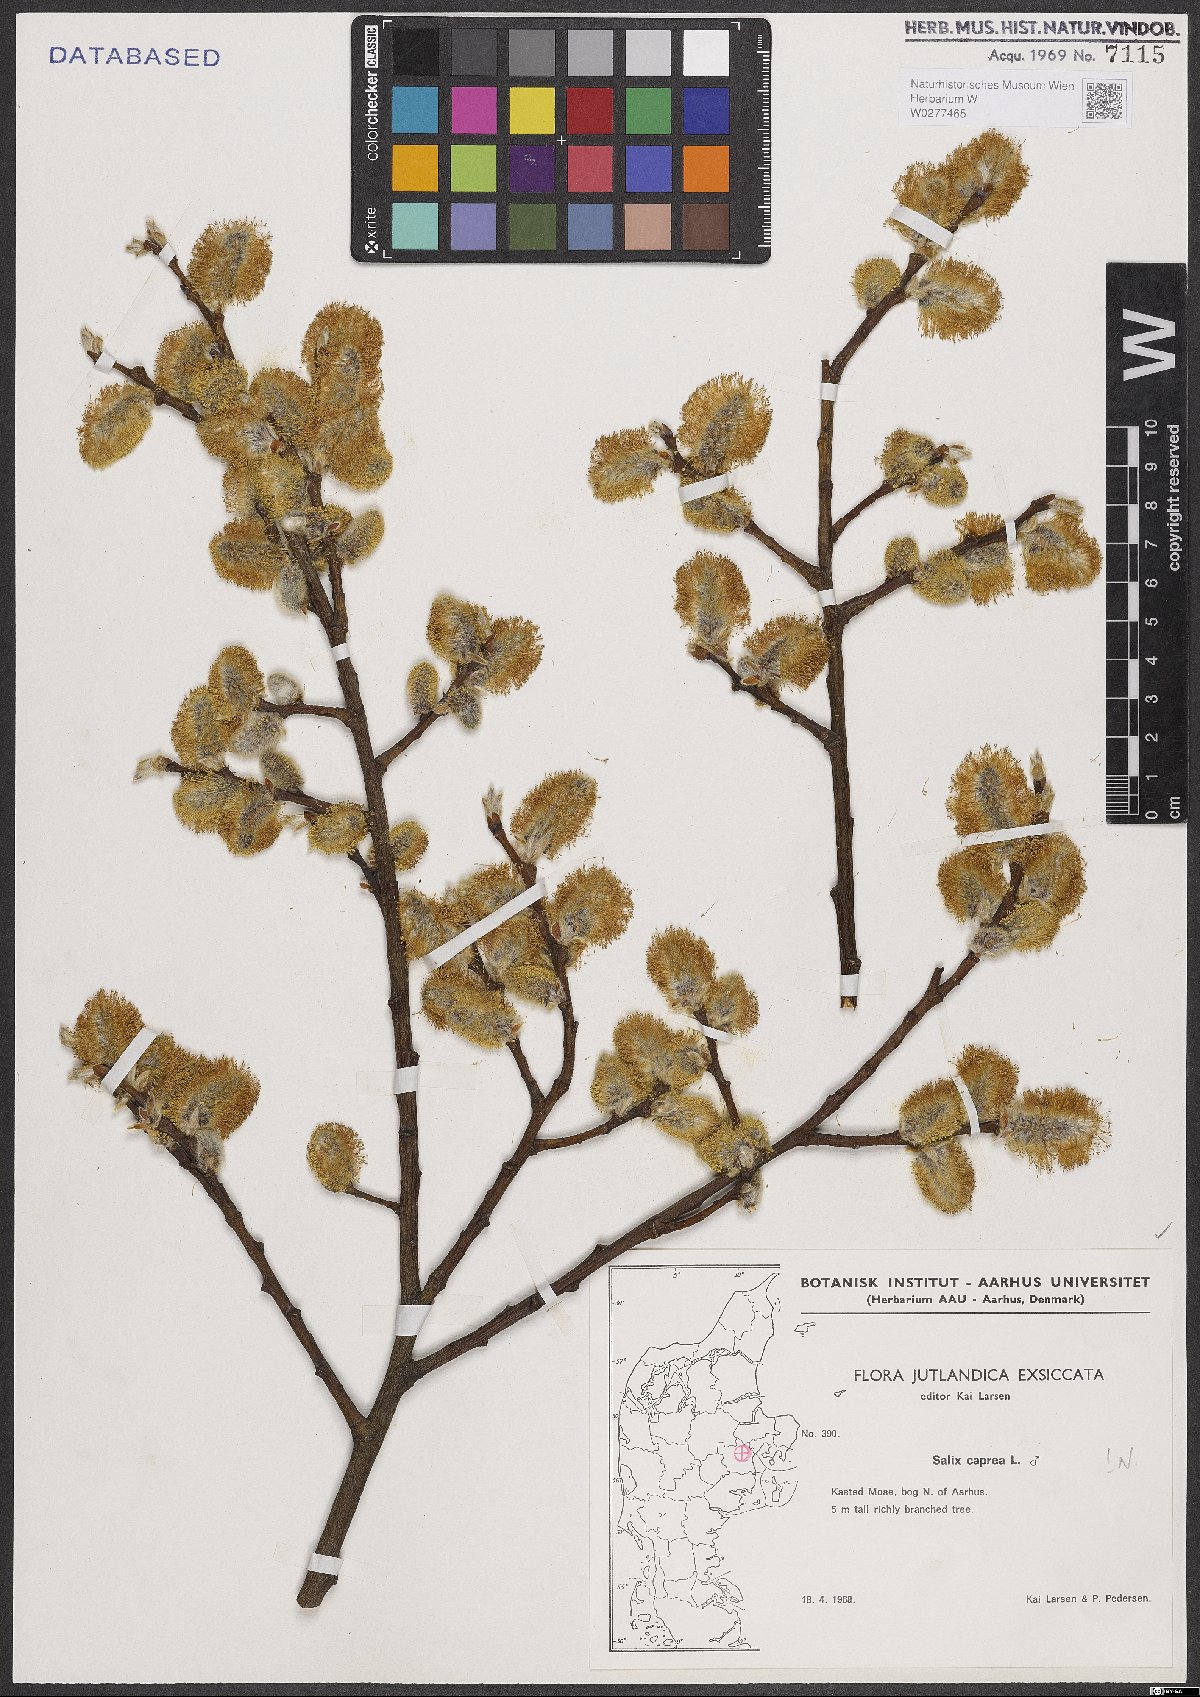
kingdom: Plantae
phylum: Tracheophyta
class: Magnoliopsida
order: Malpighiales
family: Salicaceae
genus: Salix
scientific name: Salix caprea
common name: Goat willow
